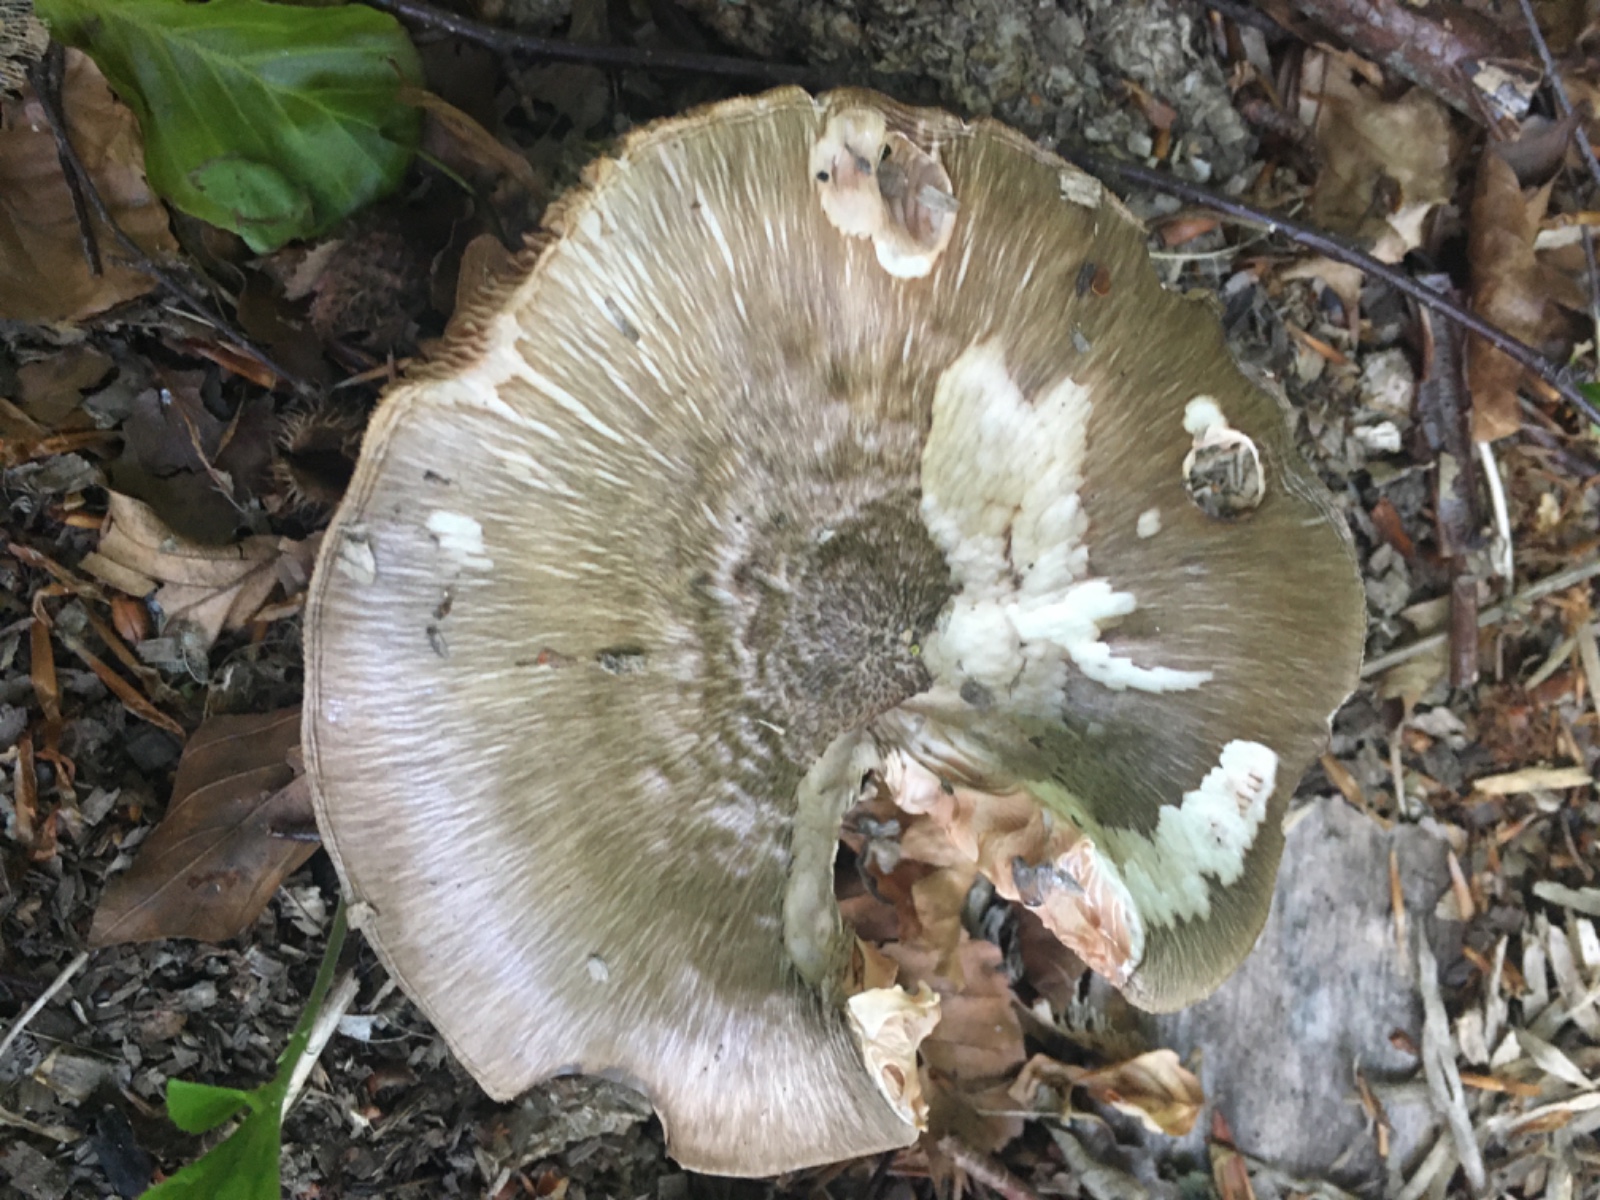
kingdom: Fungi
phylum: Basidiomycota
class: Agaricomycetes
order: Agaricales
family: Pluteaceae
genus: Pluteus
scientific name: Pluteus
